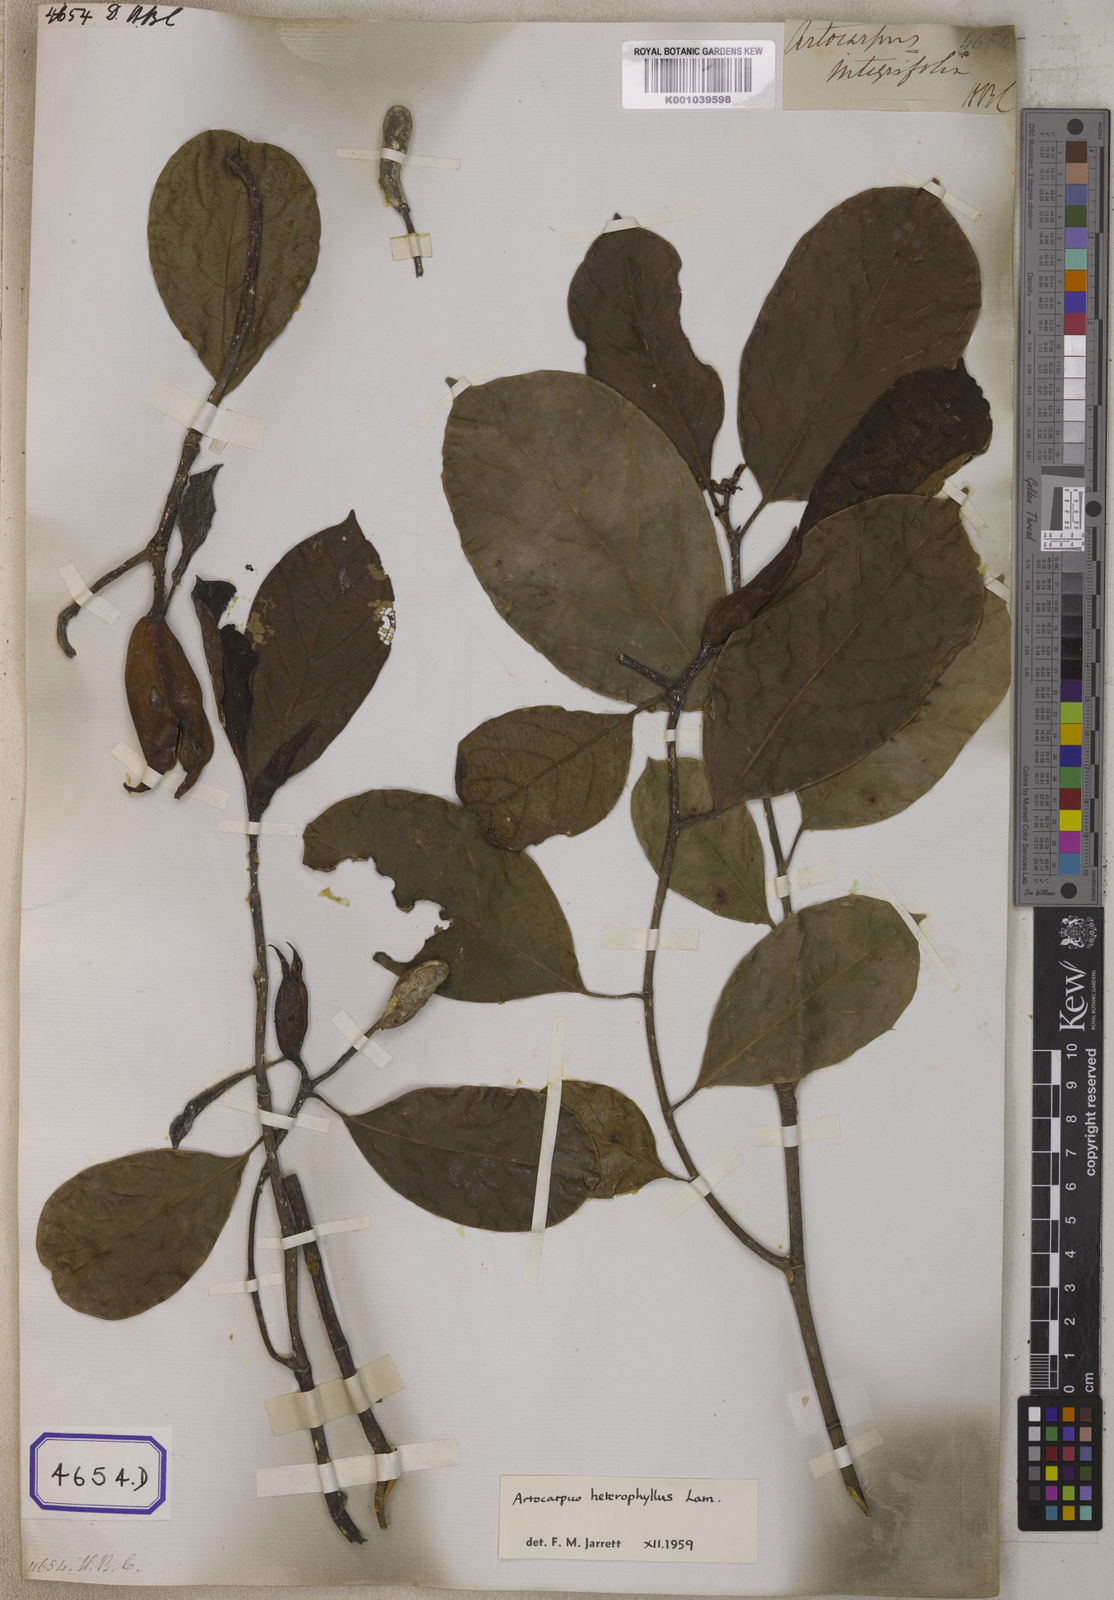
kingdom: Plantae
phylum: Tracheophyta
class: Magnoliopsida
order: Rosales
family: Moraceae
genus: Artocarpus
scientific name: Artocarpus integer
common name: Chempedak
